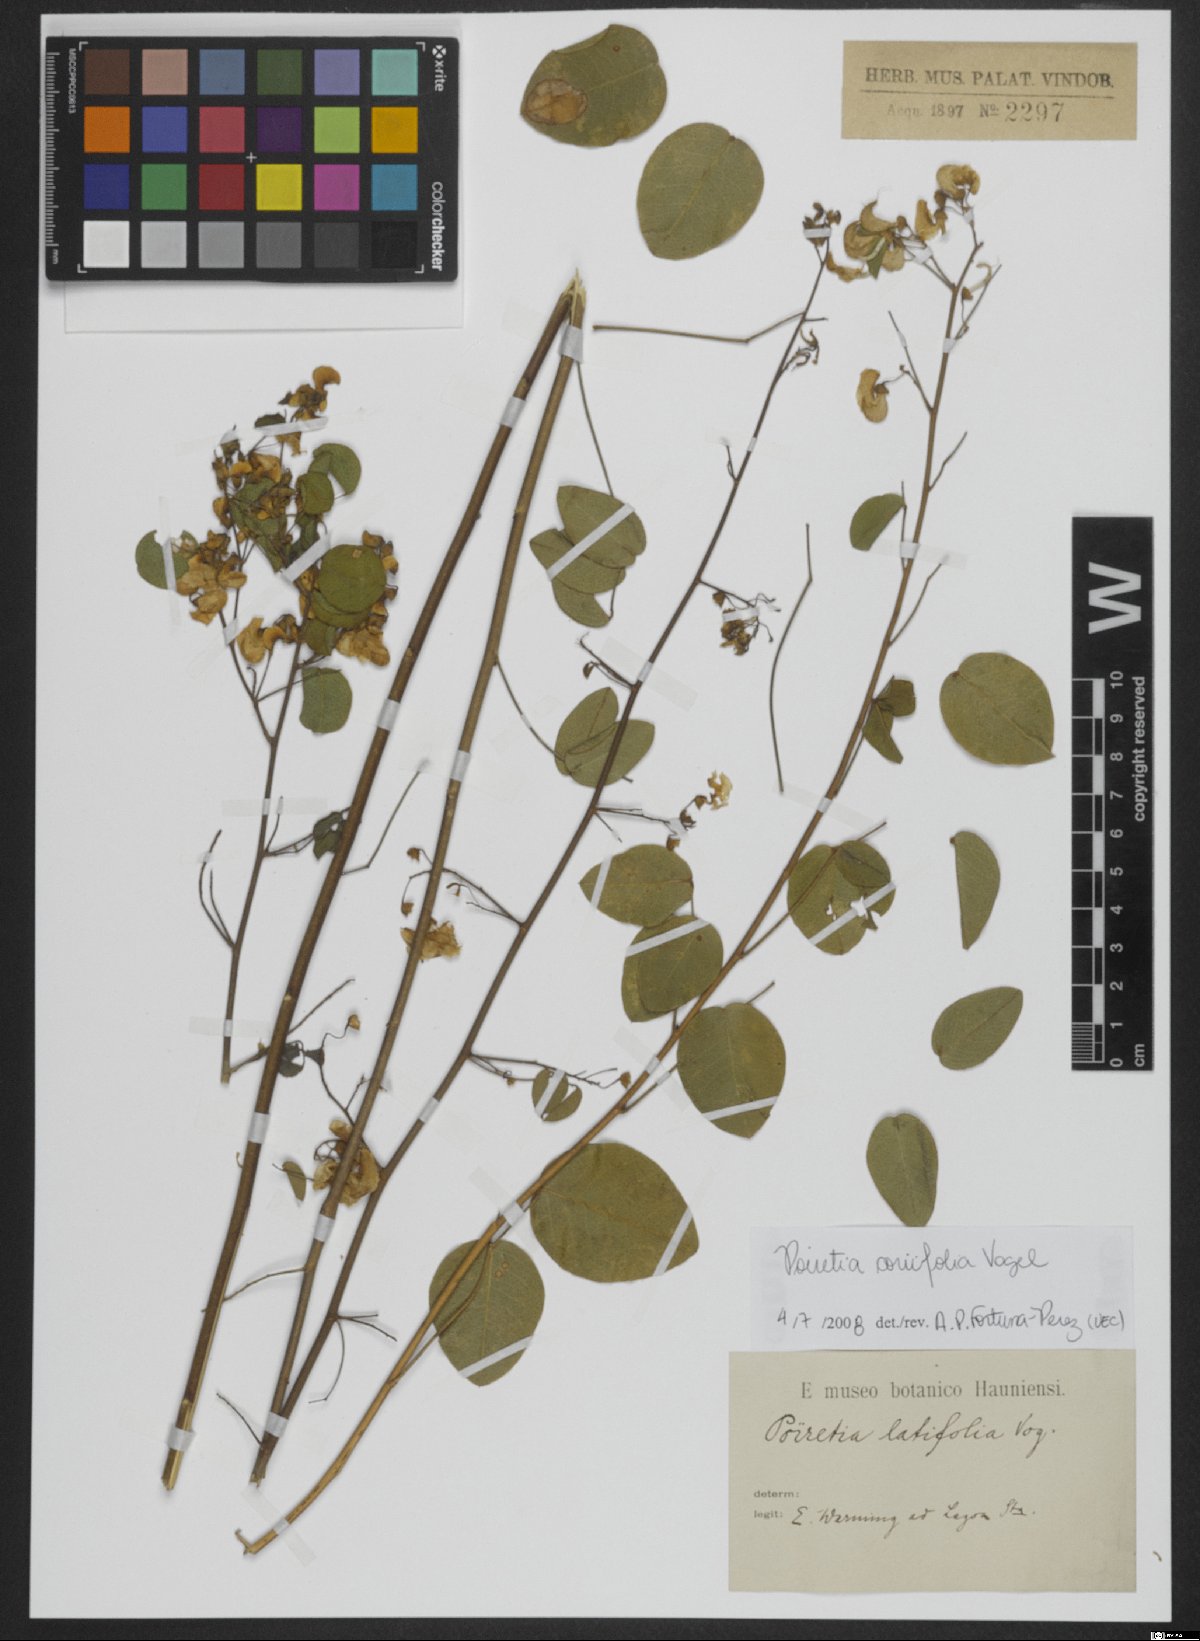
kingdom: Plantae
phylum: Tracheophyta
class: Magnoliopsida
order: Fabales
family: Fabaceae
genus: Poiretia
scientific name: Poiretia coriifolia
